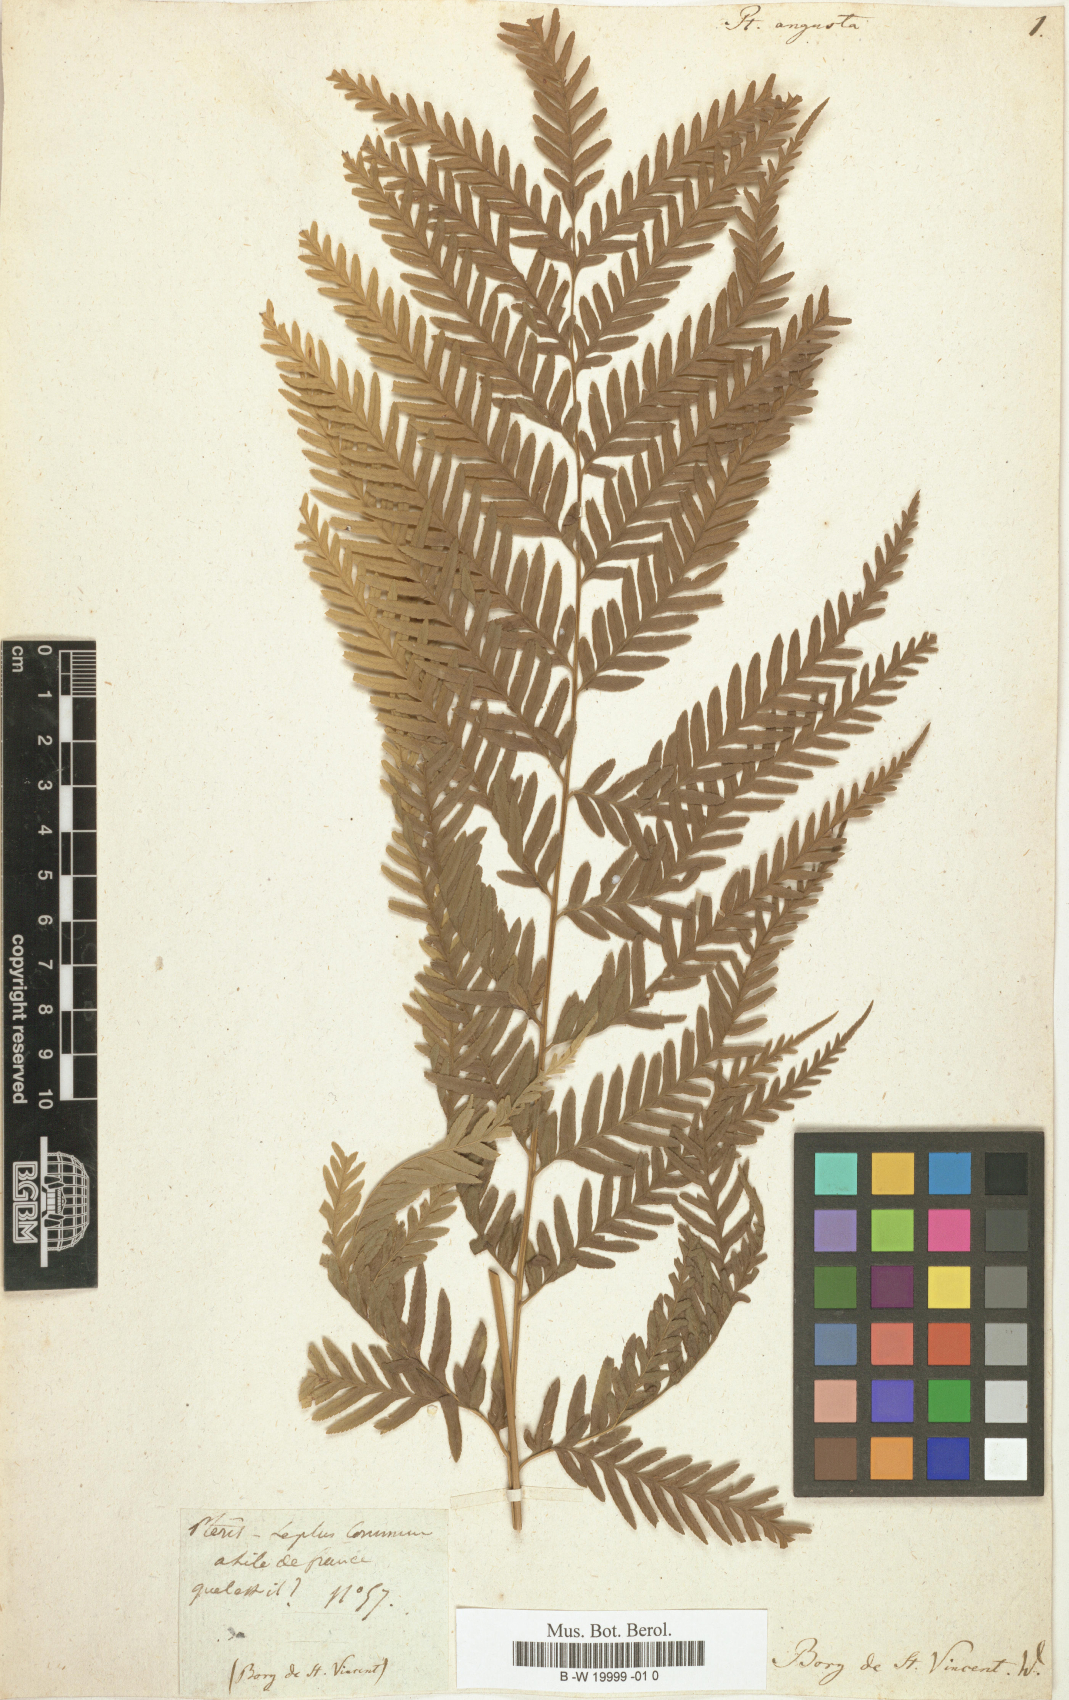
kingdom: Plantae
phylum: Tracheophyta
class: Polypodiopsida
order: Polypodiales
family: Pteridaceae
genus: Myriopteris
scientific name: Myriopteris scabra
